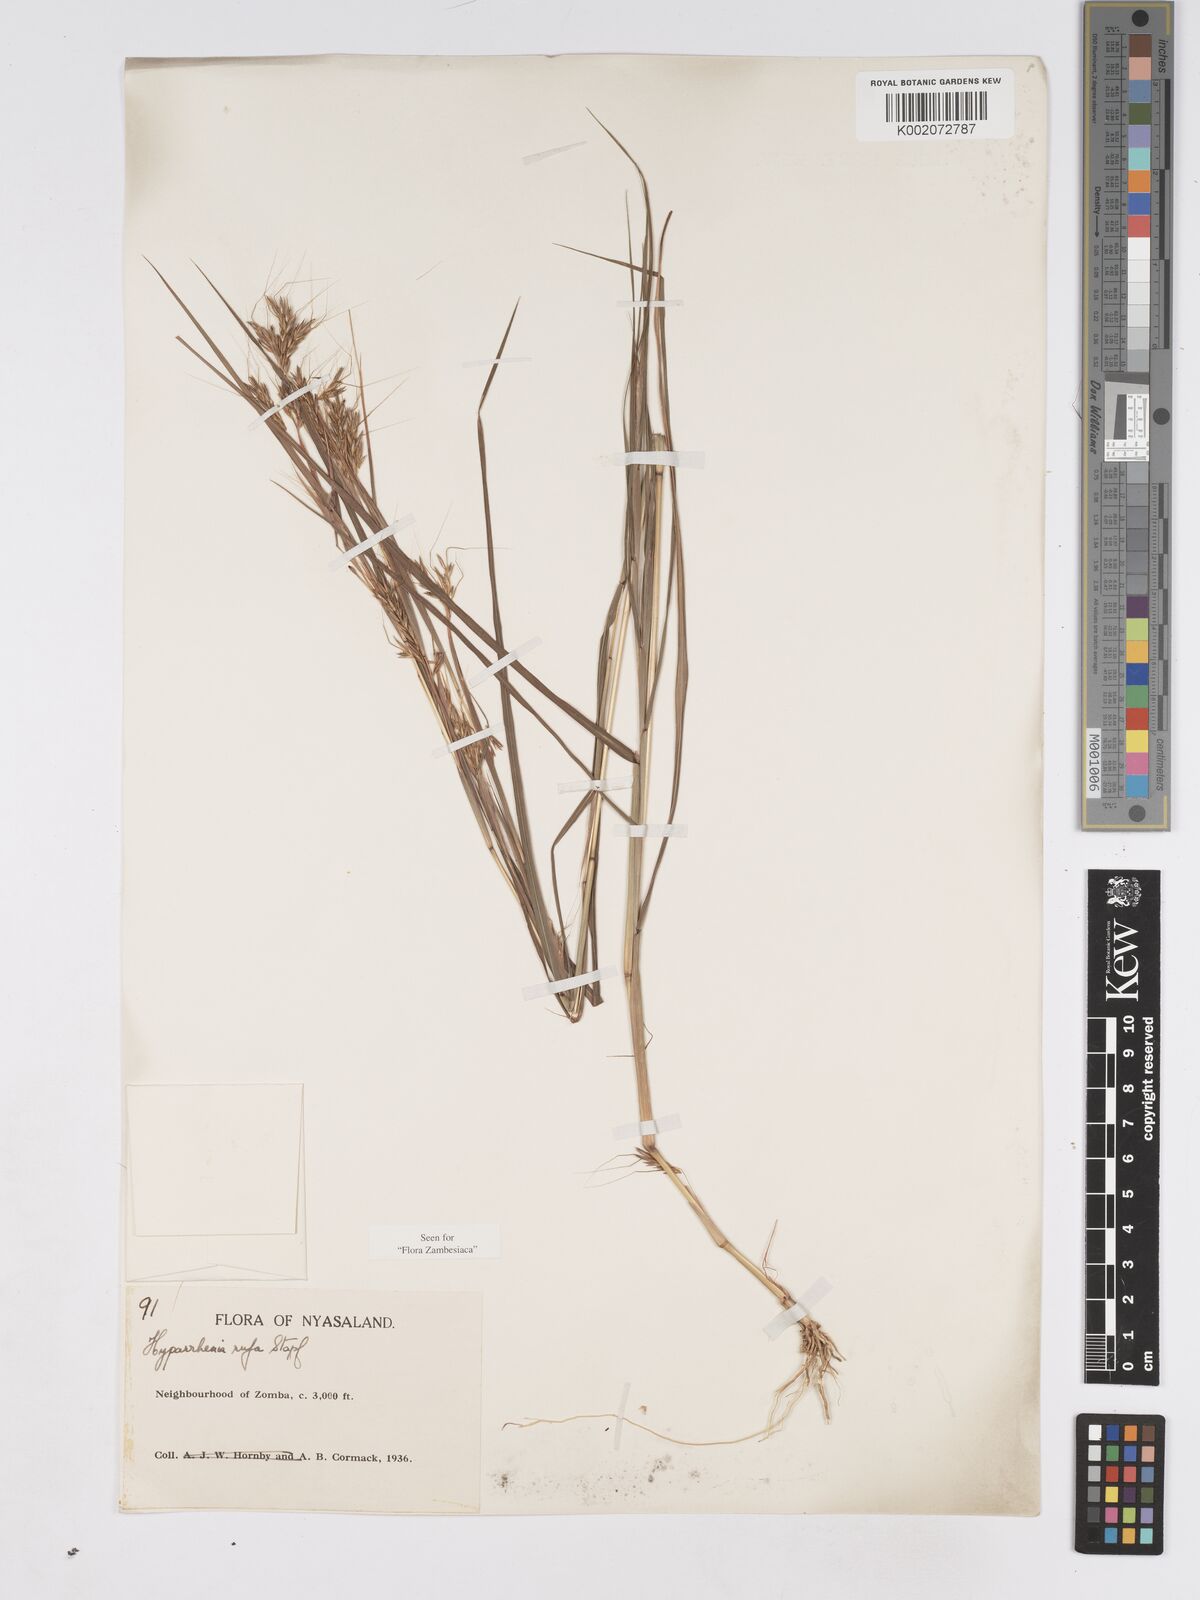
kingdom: Plantae
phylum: Tracheophyta
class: Liliopsida
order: Poales
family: Poaceae
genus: Hyparrhenia
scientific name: Hyparrhenia rufa
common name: Jaraguagrass
